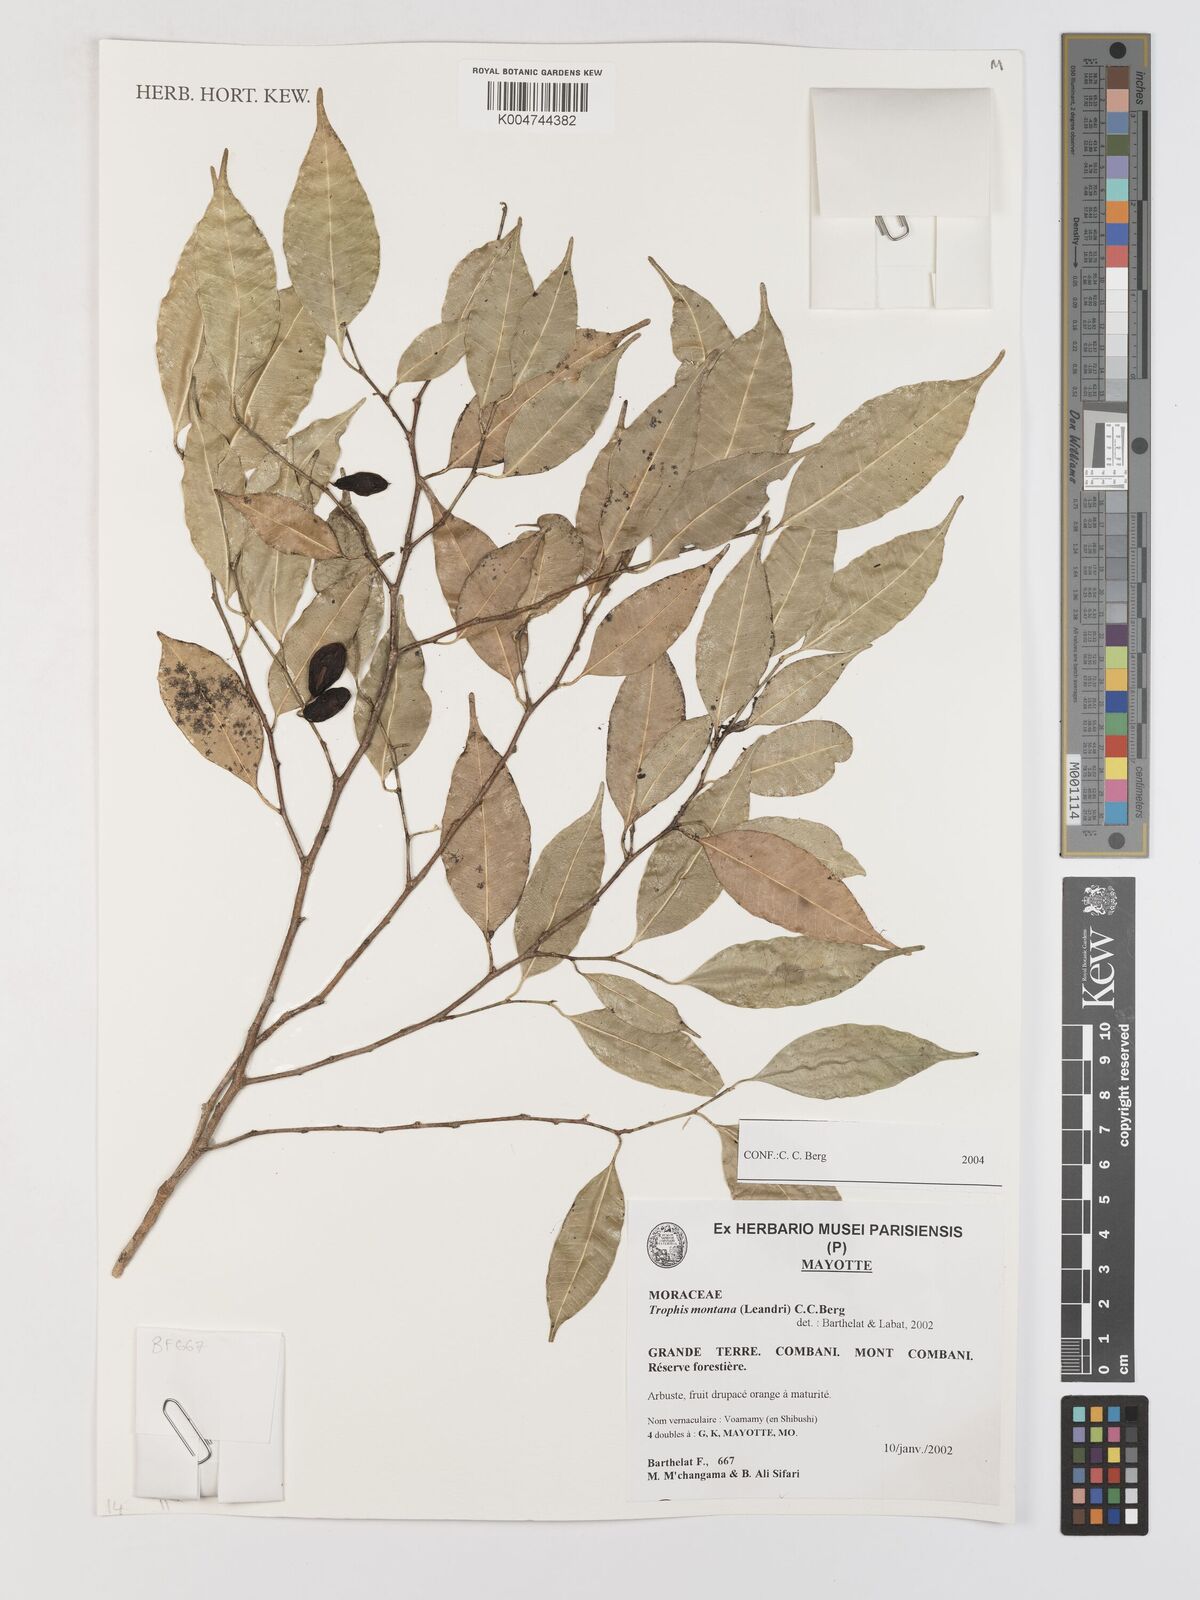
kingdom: Plantae
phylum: Tracheophyta
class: Magnoliopsida
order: Rosales
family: Moraceae
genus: Maillardia
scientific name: Maillardia montana
